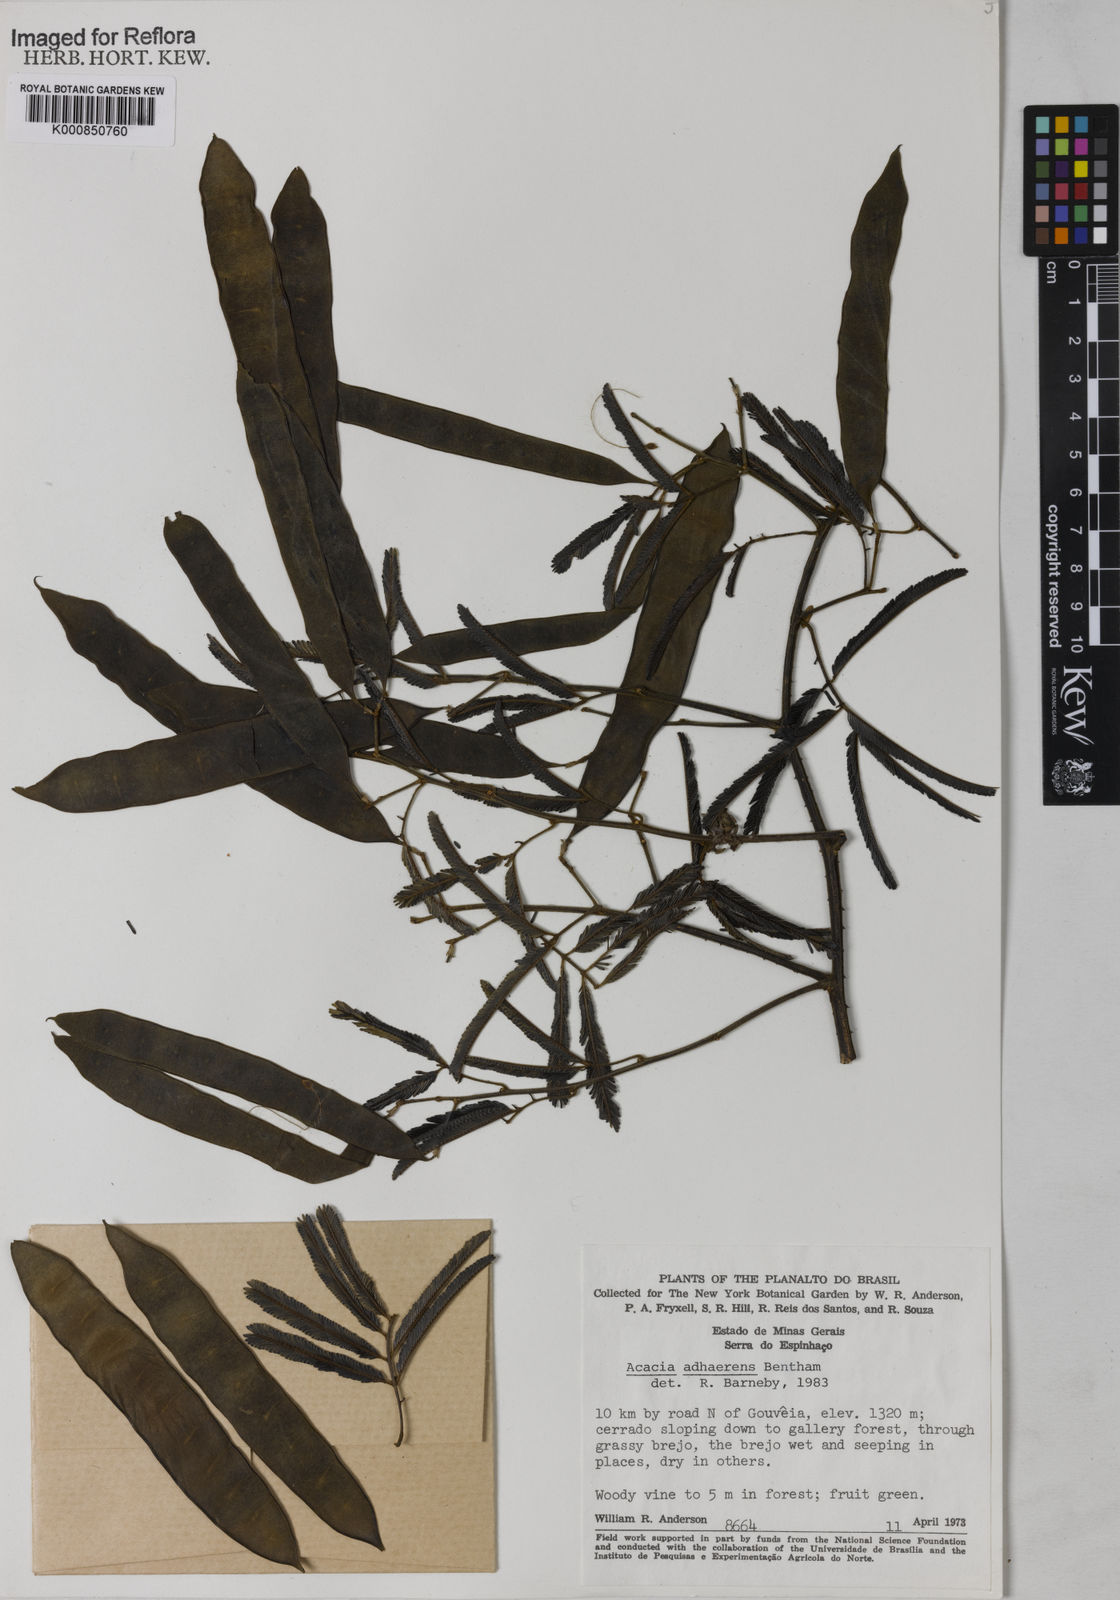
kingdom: Plantae
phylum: Tracheophyta
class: Magnoliopsida
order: Fabales
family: Fabaceae
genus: Senegalia
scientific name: Senegalia martiusiana
